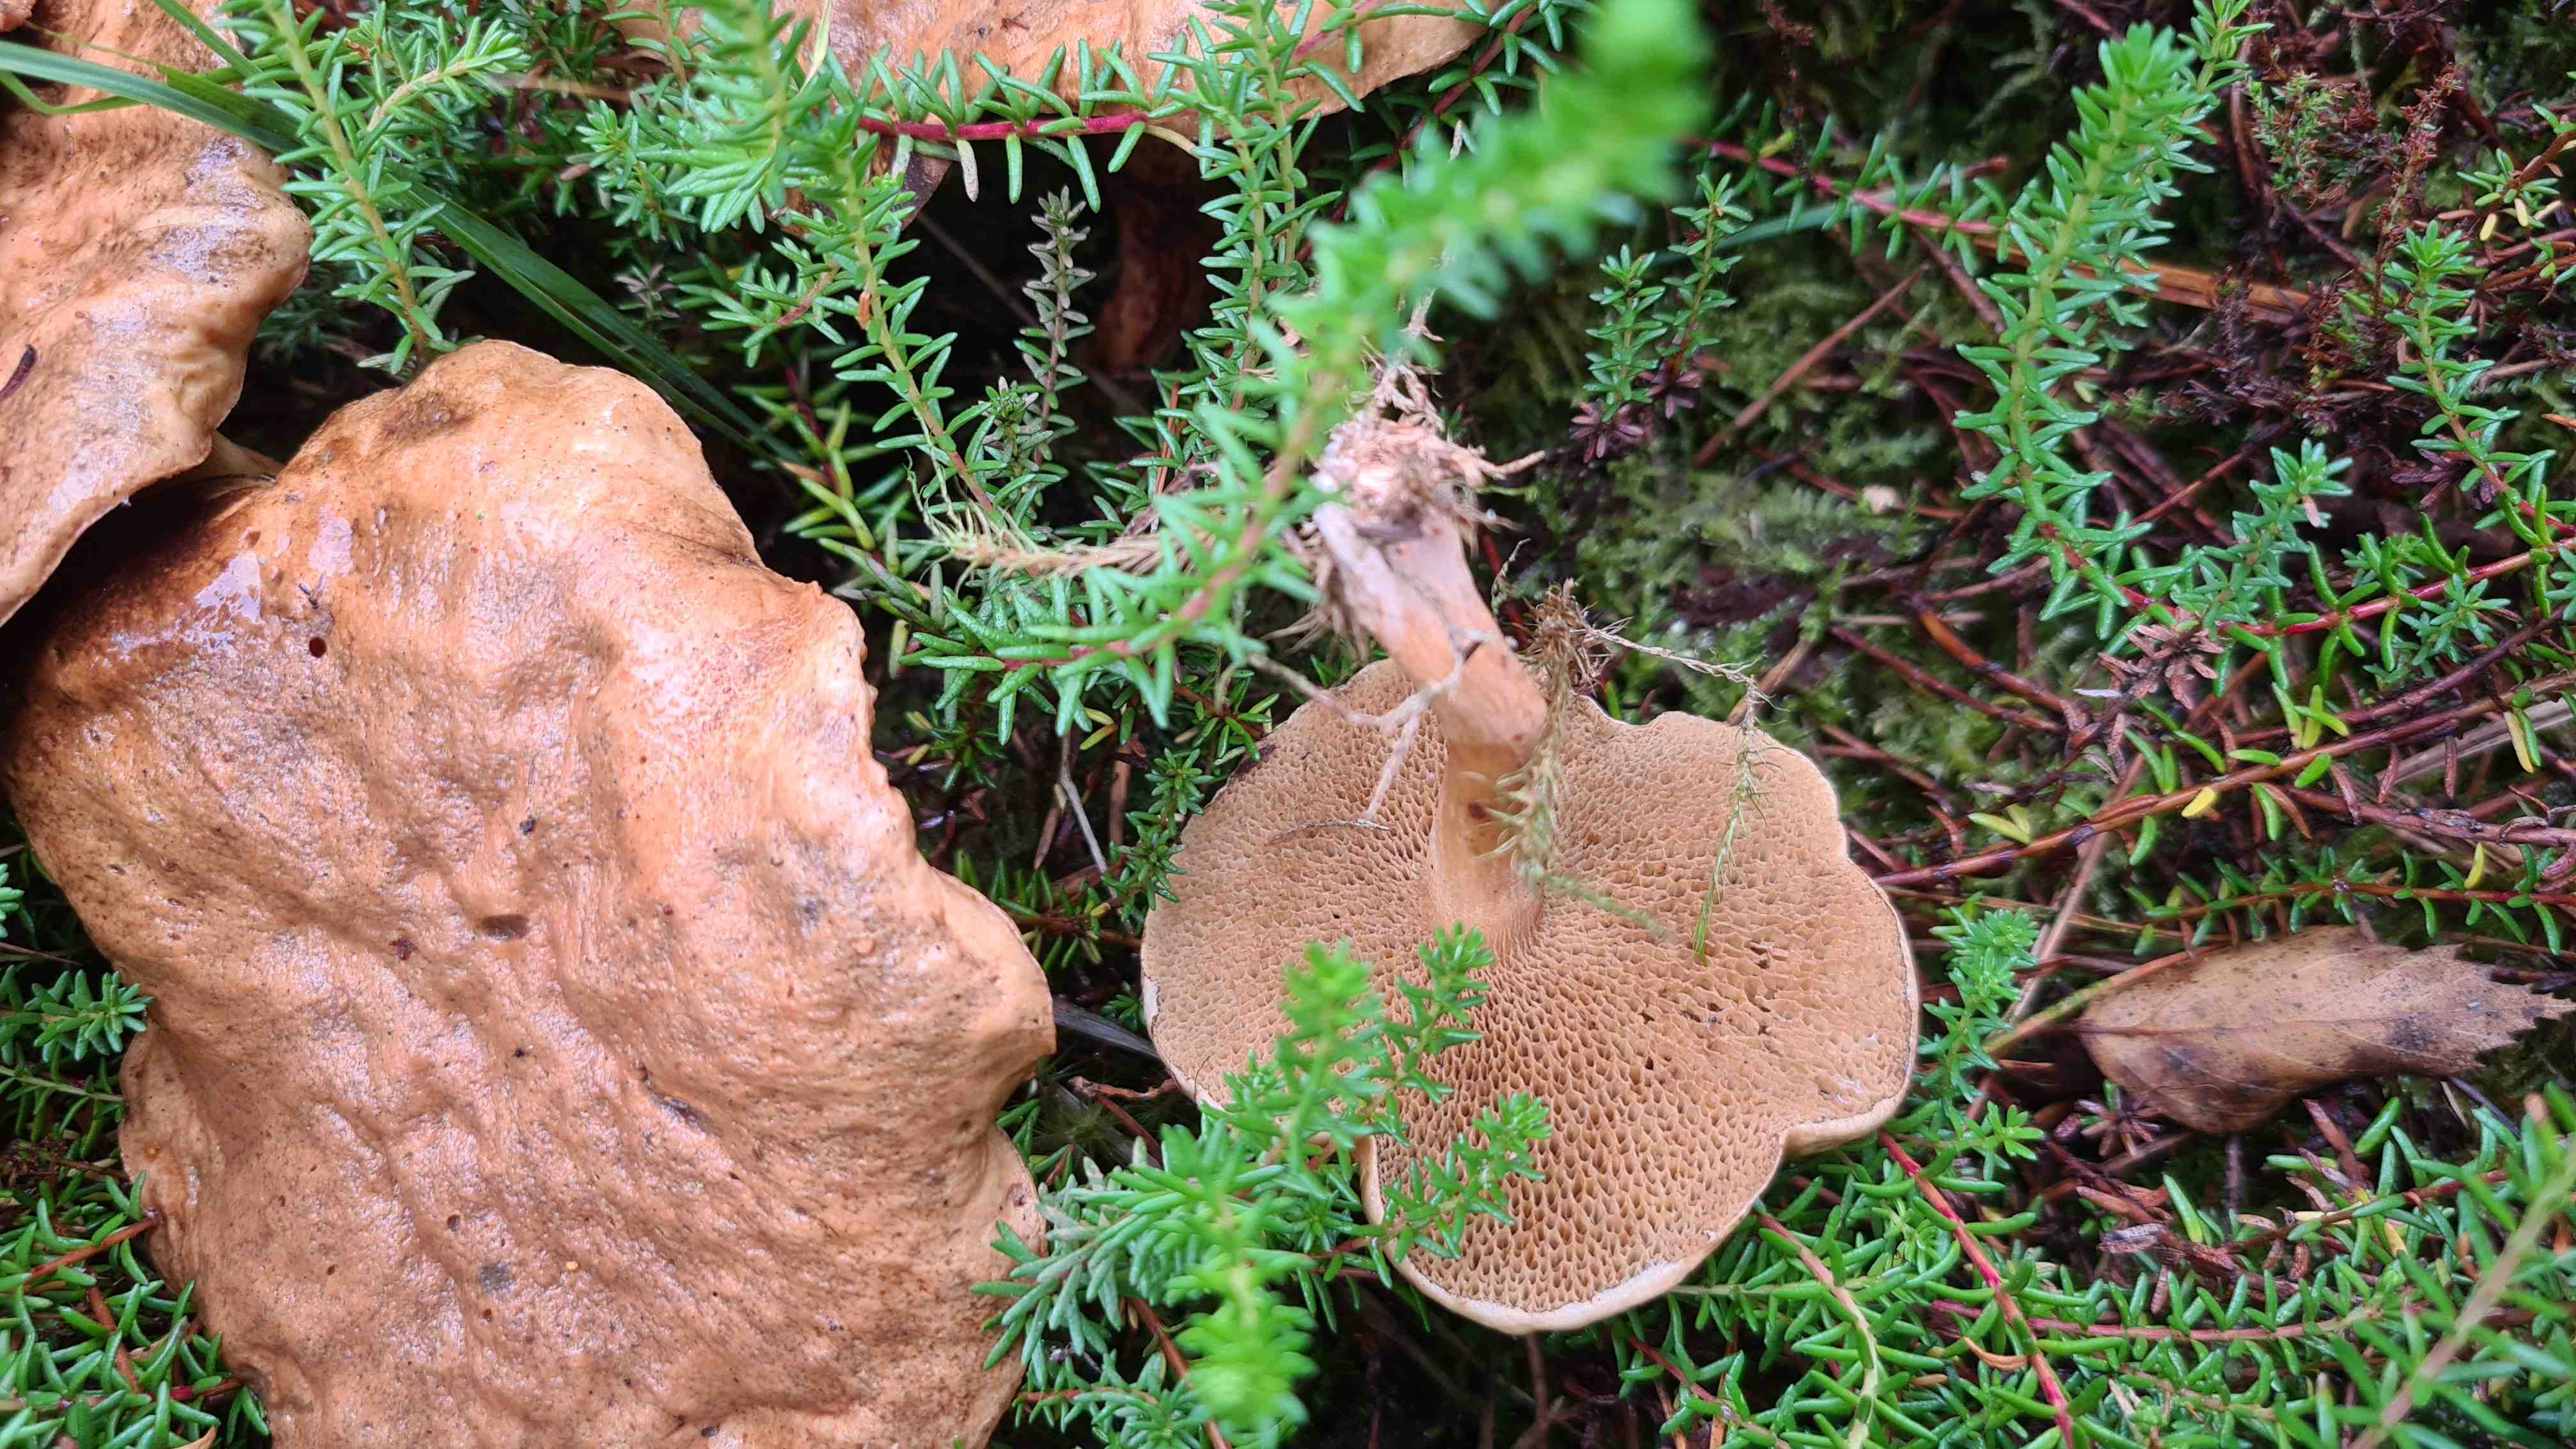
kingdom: Fungi
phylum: Basidiomycota
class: Agaricomycetes
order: Boletales
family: Suillaceae
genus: Suillus
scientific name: Suillus bovinus
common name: grovporet slimrørhat
